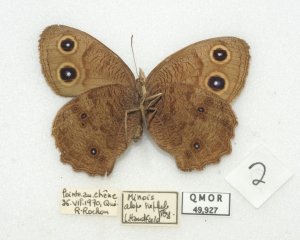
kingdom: Animalia
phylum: Arthropoda
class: Insecta
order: Lepidoptera
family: Nymphalidae
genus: Cercyonis
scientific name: Cercyonis pegala
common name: Common Wood-Nymph
